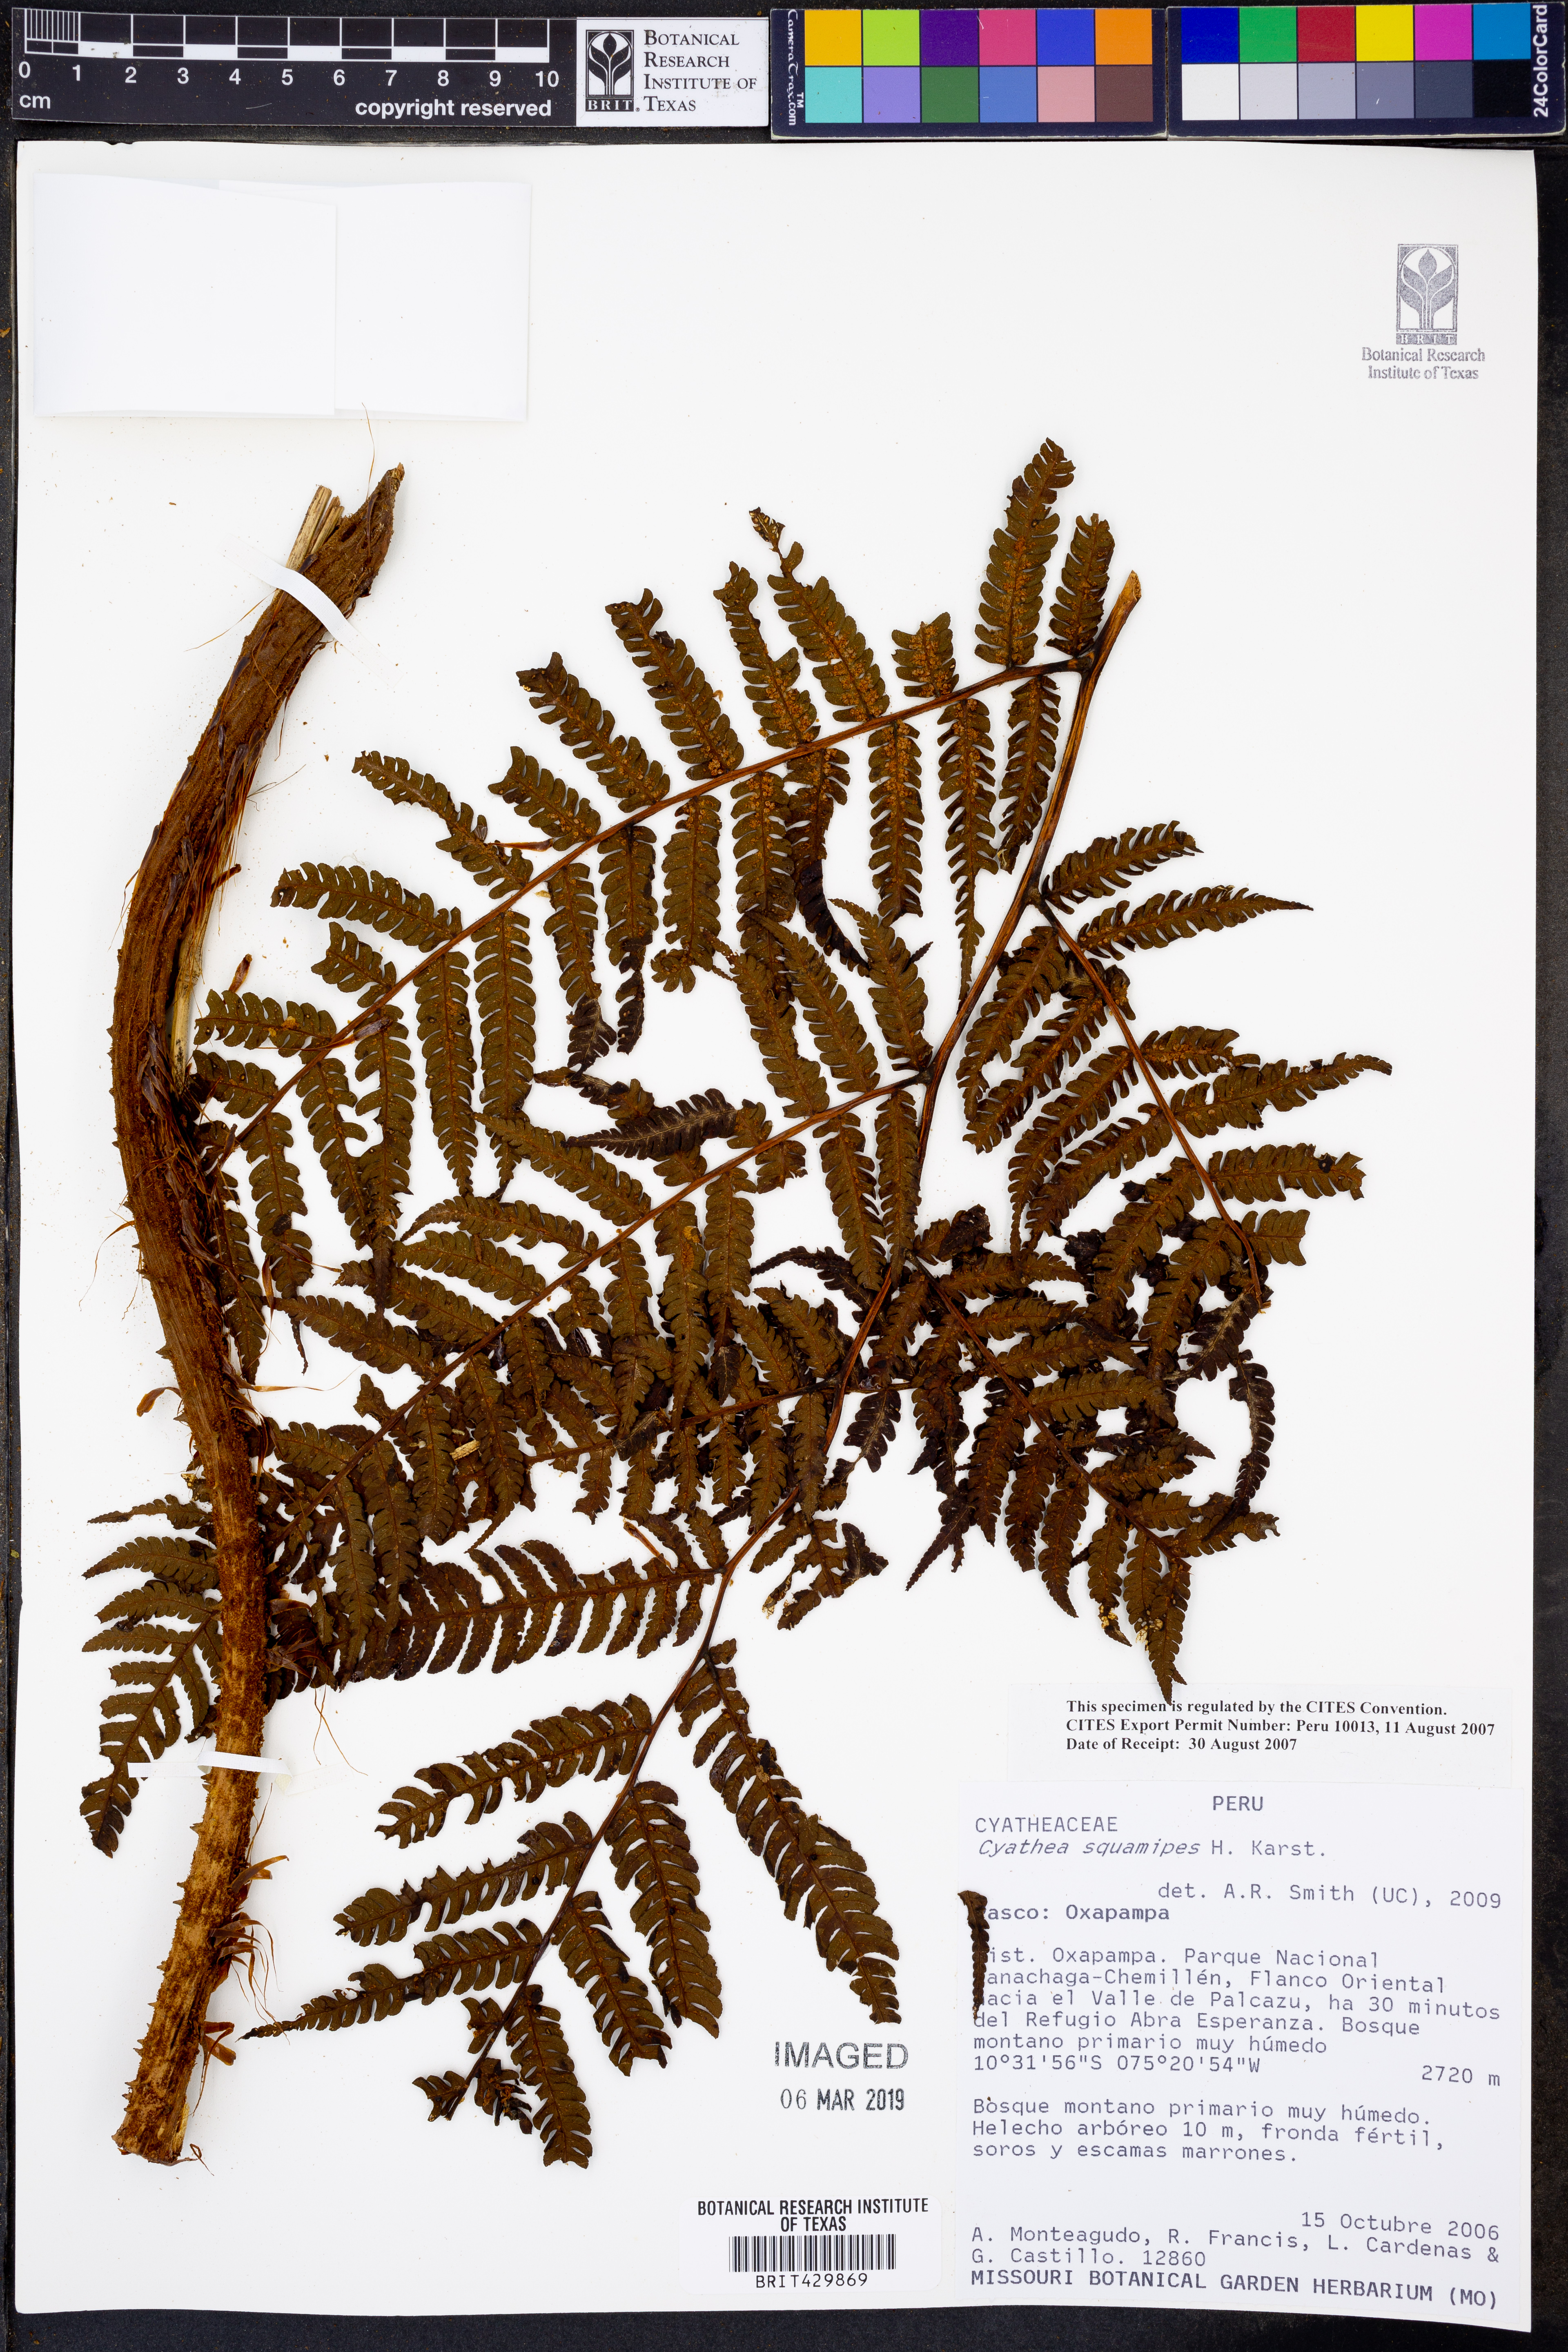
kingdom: Plantae
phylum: Tracheophyta
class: Polypodiopsida
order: Cyatheales
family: Cyatheaceae
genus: Cyathea
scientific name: Cyathea squamipes
